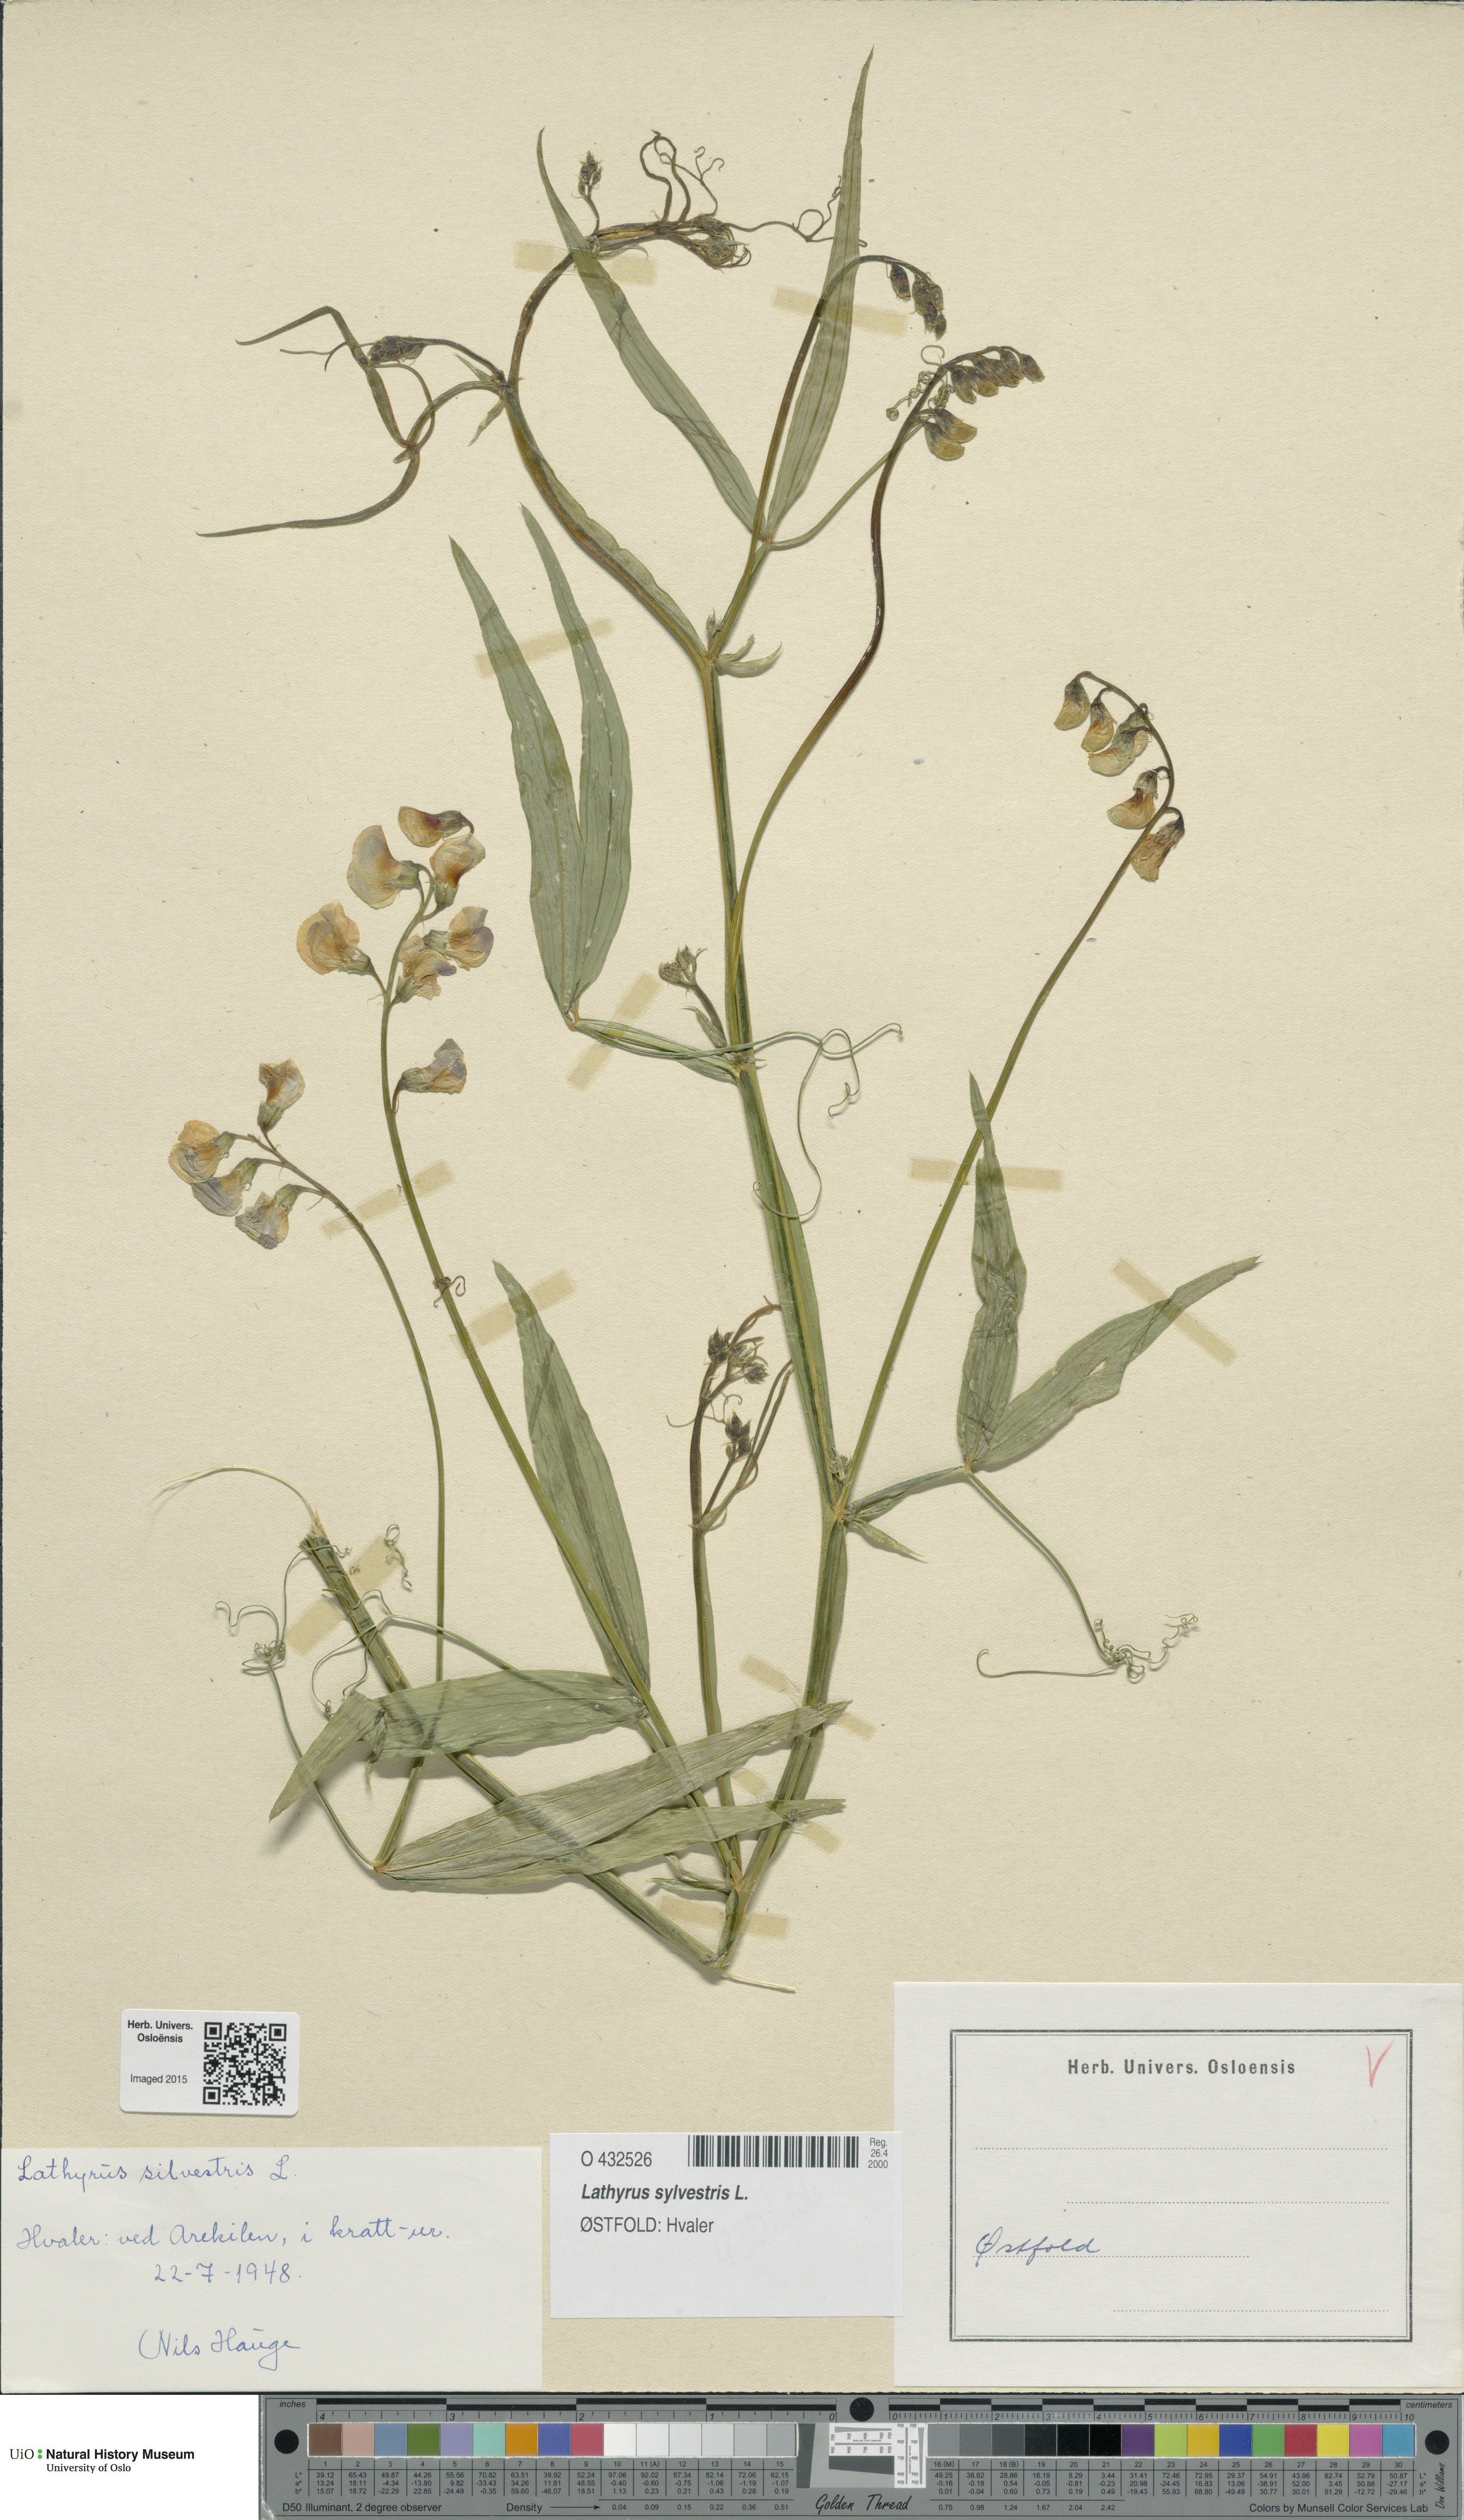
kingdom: Plantae
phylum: Tracheophyta
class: Magnoliopsida
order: Fabales
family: Fabaceae
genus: Lathyrus
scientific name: Lathyrus sylvestris
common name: Flat pea
